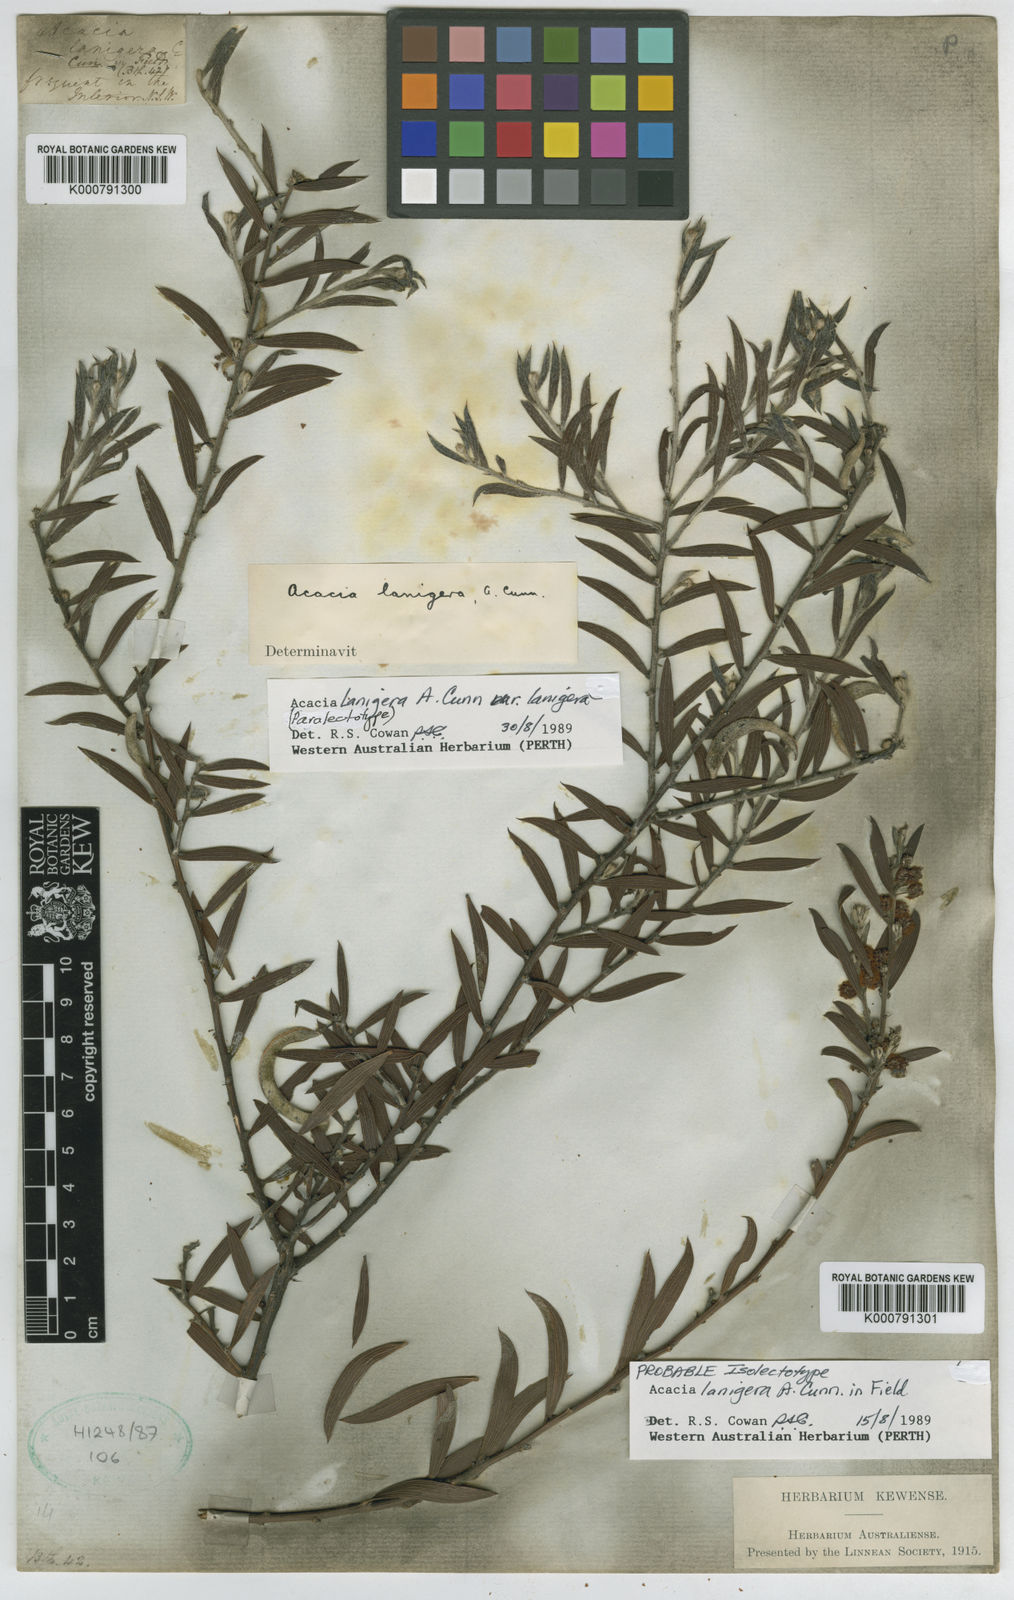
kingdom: Plantae
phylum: Tracheophyta
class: Magnoliopsida
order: Fabales
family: Fabaceae
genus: Acacia
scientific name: Acacia lanigera
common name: Hairy wattle
